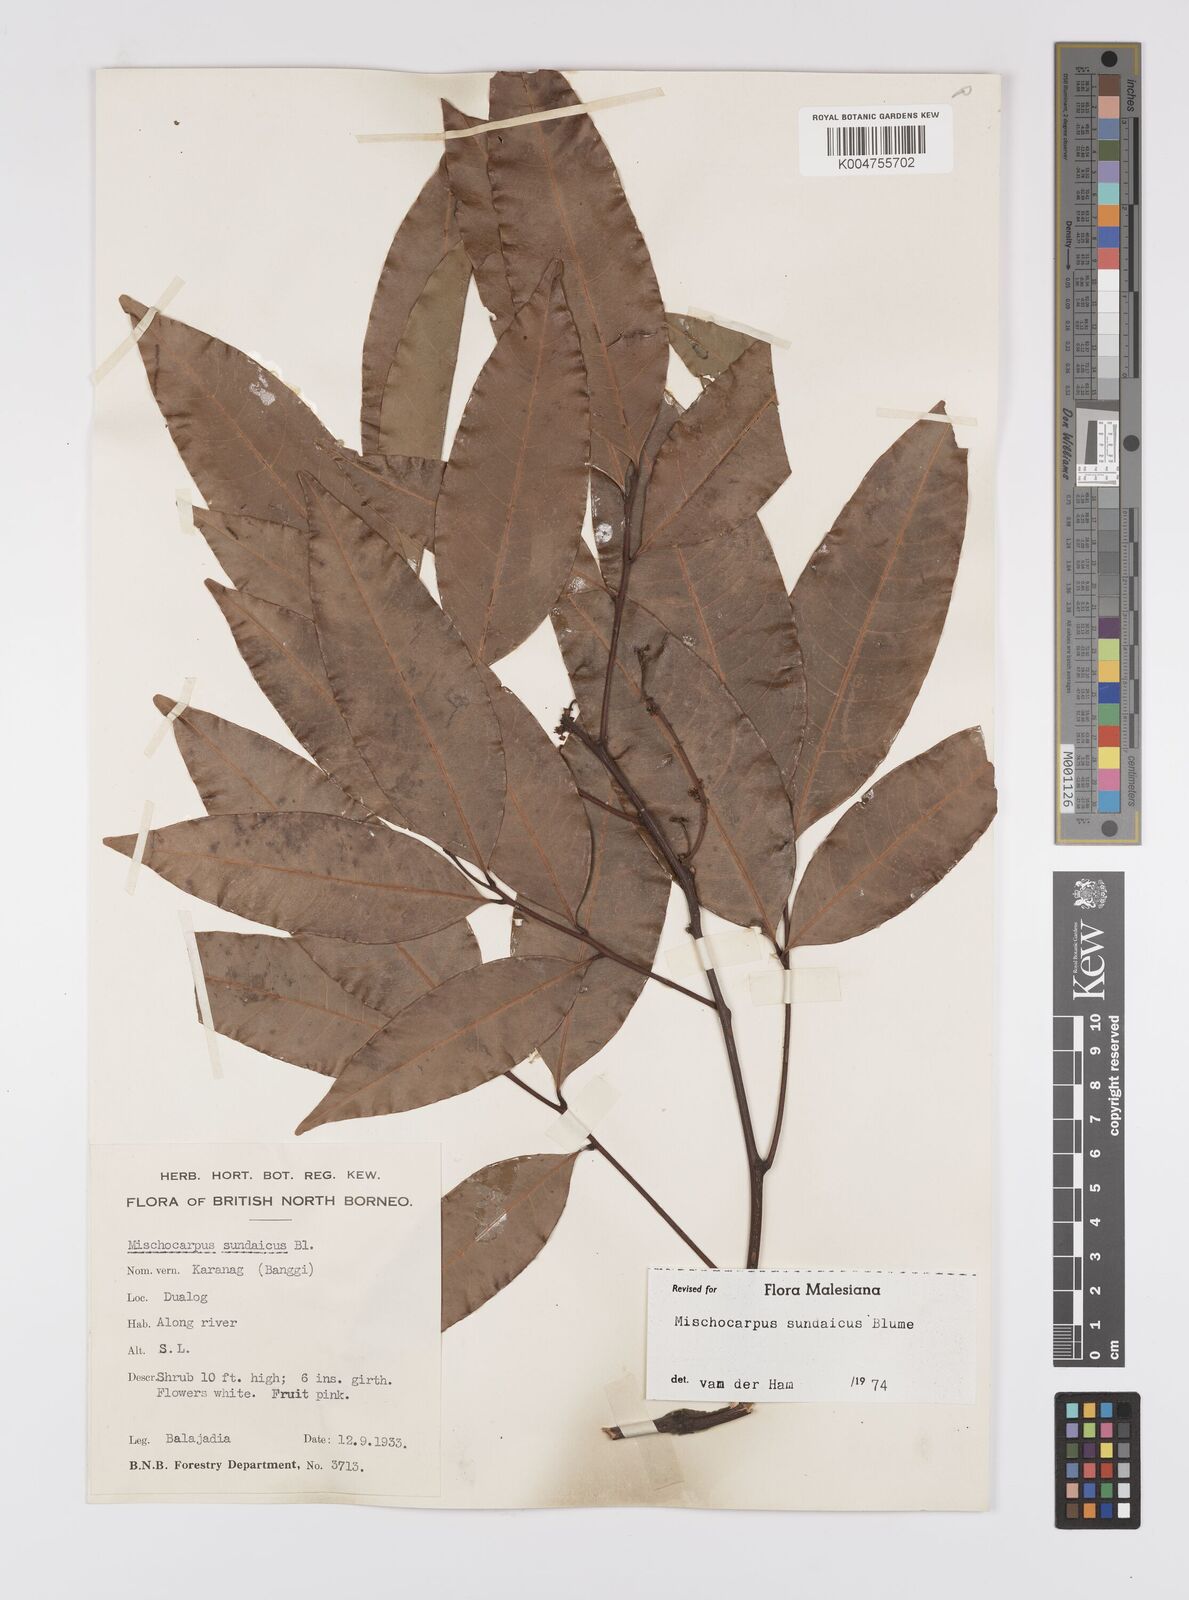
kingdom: Plantae
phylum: Tracheophyta
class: Magnoliopsida
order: Sapindales
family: Sapindaceae
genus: Mischocarpus
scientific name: Mischocarpus sundaicus
